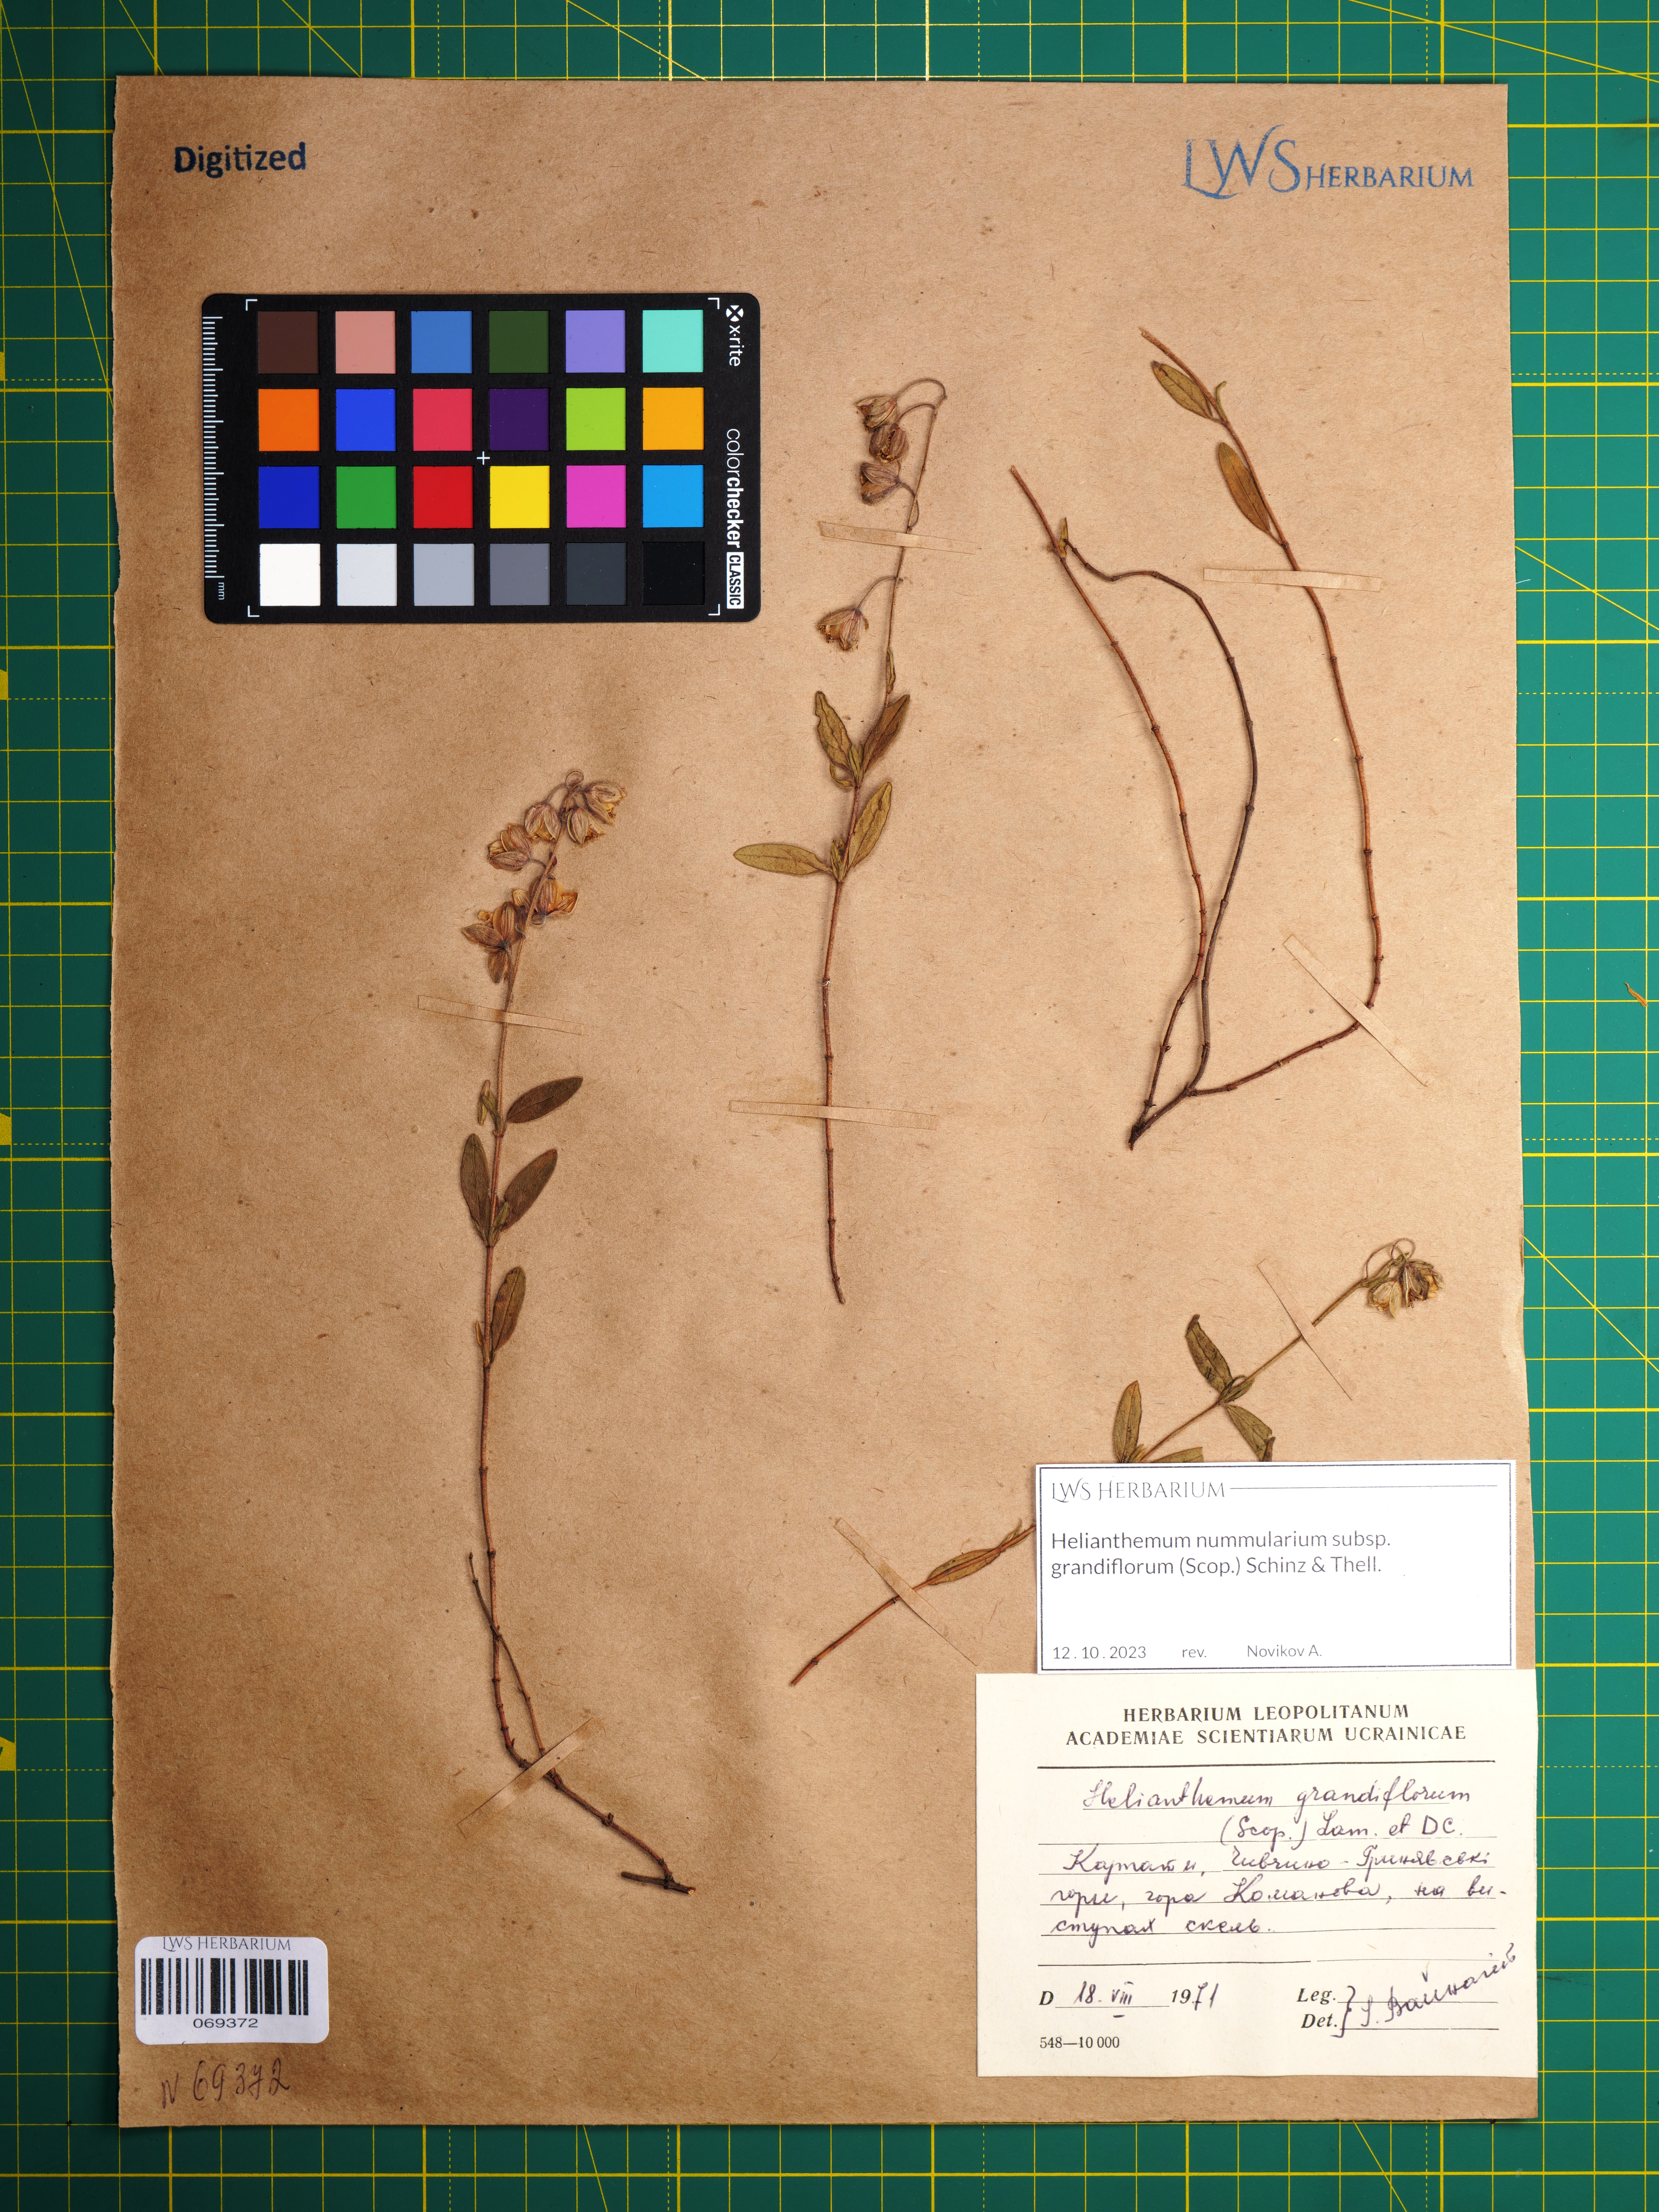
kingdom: Plantae
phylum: Tracheophyta
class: Magnoliopsida
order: Malvales
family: Cistaceae
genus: Helianthemum
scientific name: Helianthemum nummularium
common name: Common rock-rose
